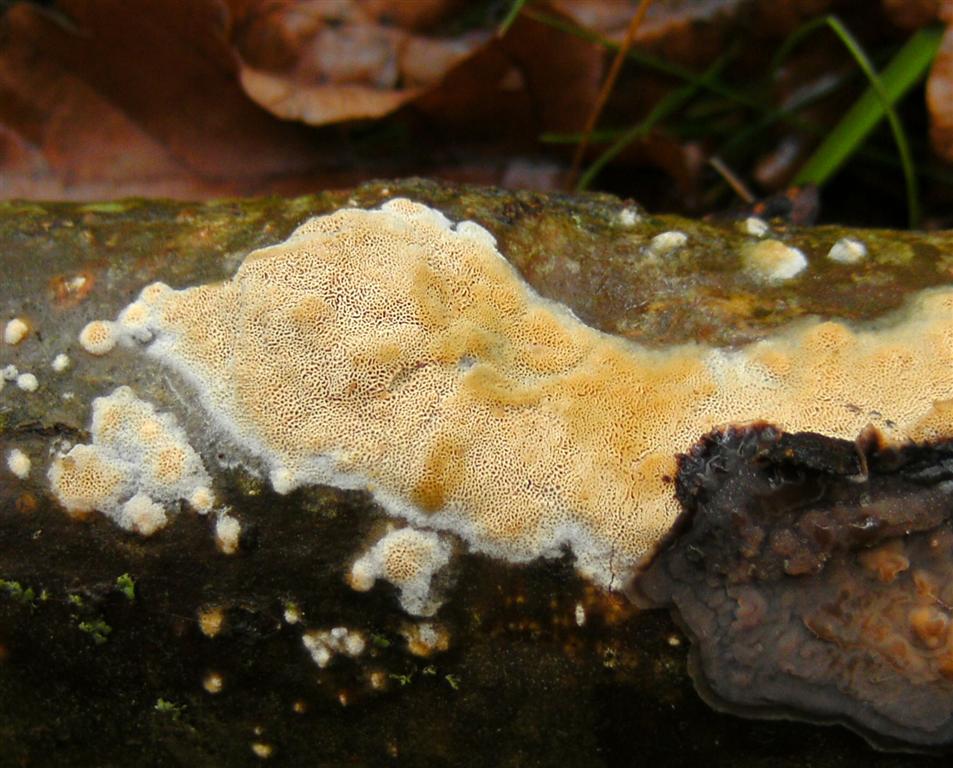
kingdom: Fungi
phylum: Basidiomycota
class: Agaricomycetes
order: Hymenochaetales
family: Schizoporaceae
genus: Xylodon
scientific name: Xylodon subtropicus
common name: labyrint-tandsvamp
